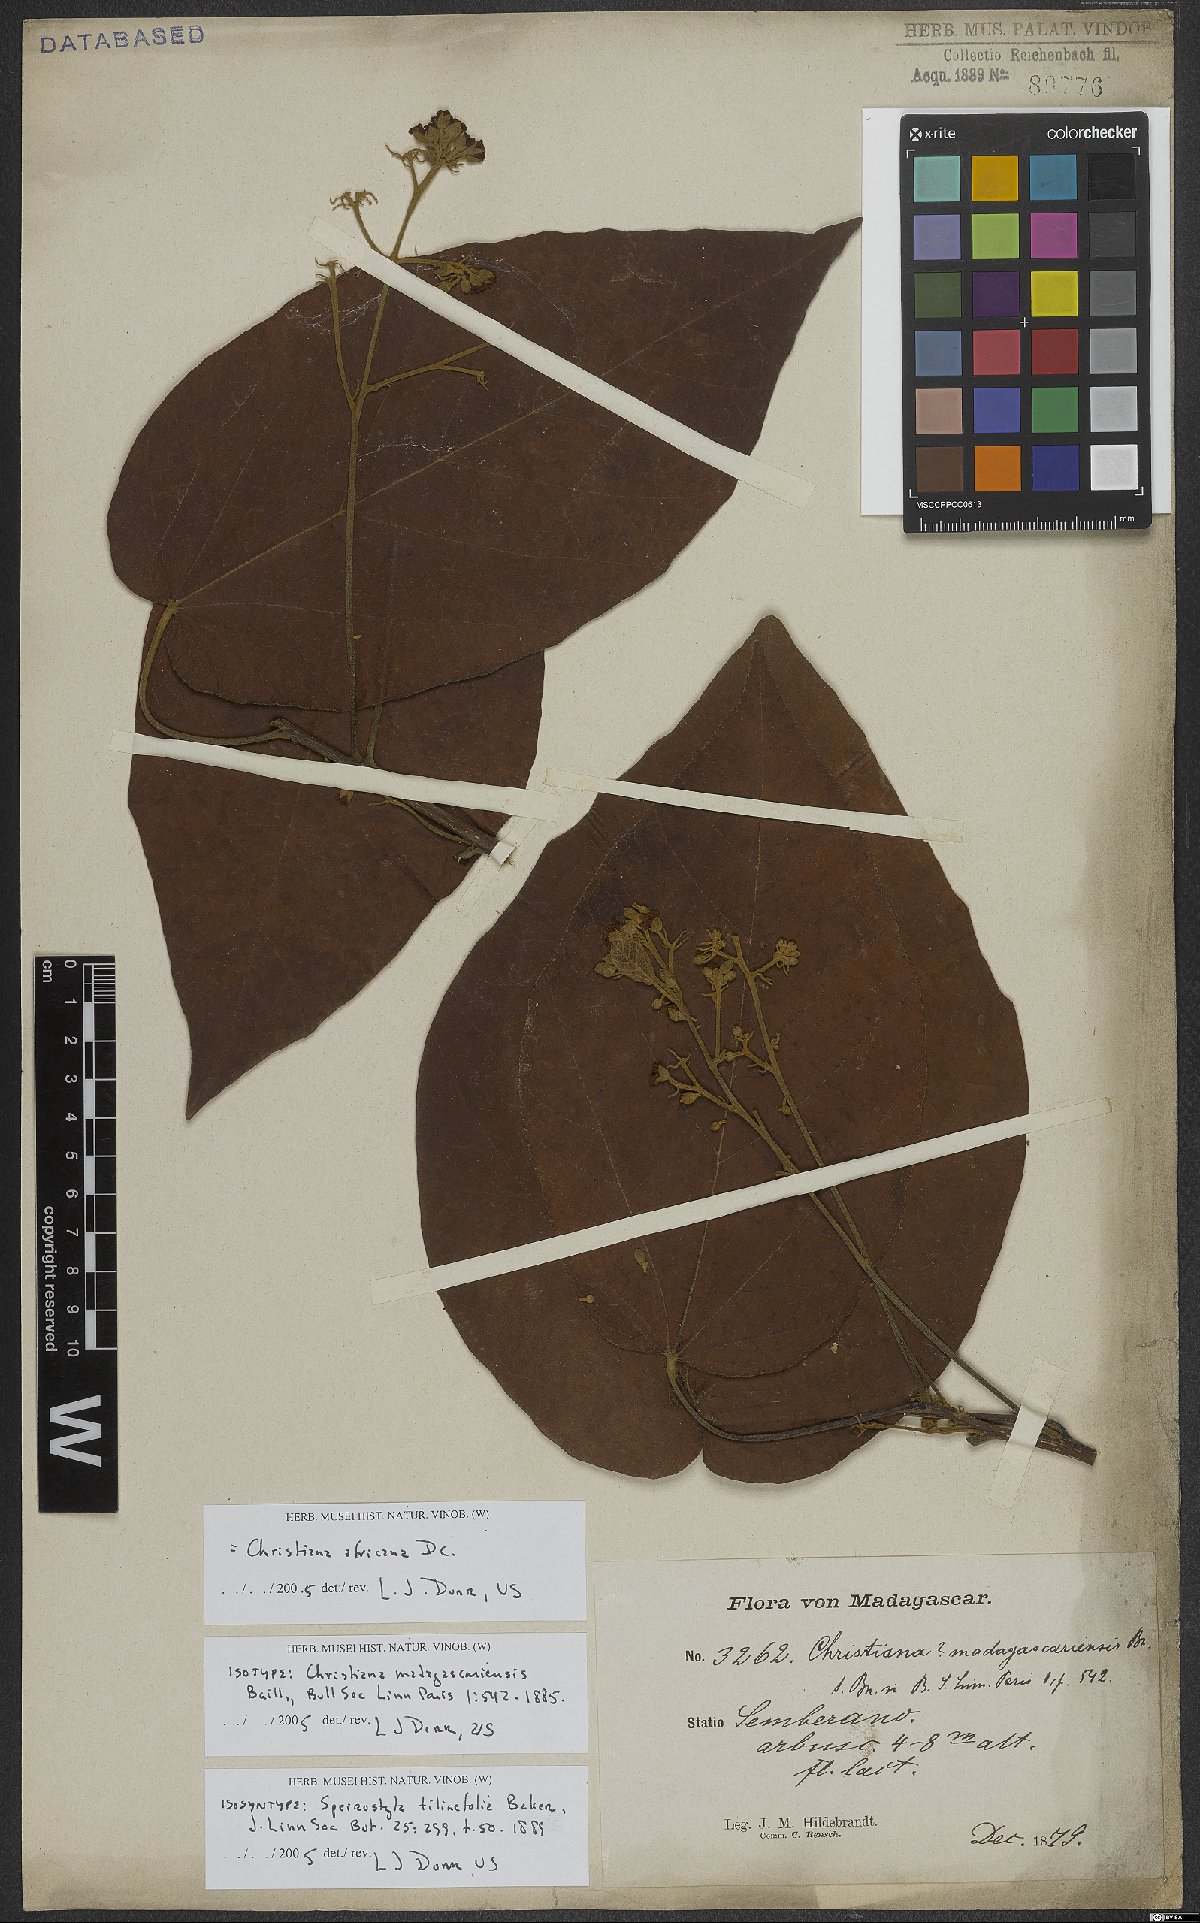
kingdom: Plantae
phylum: Tracheophyta
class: Magnoliopsida
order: Malvales
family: Malvaceae
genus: Christiana
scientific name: Christiana africana
